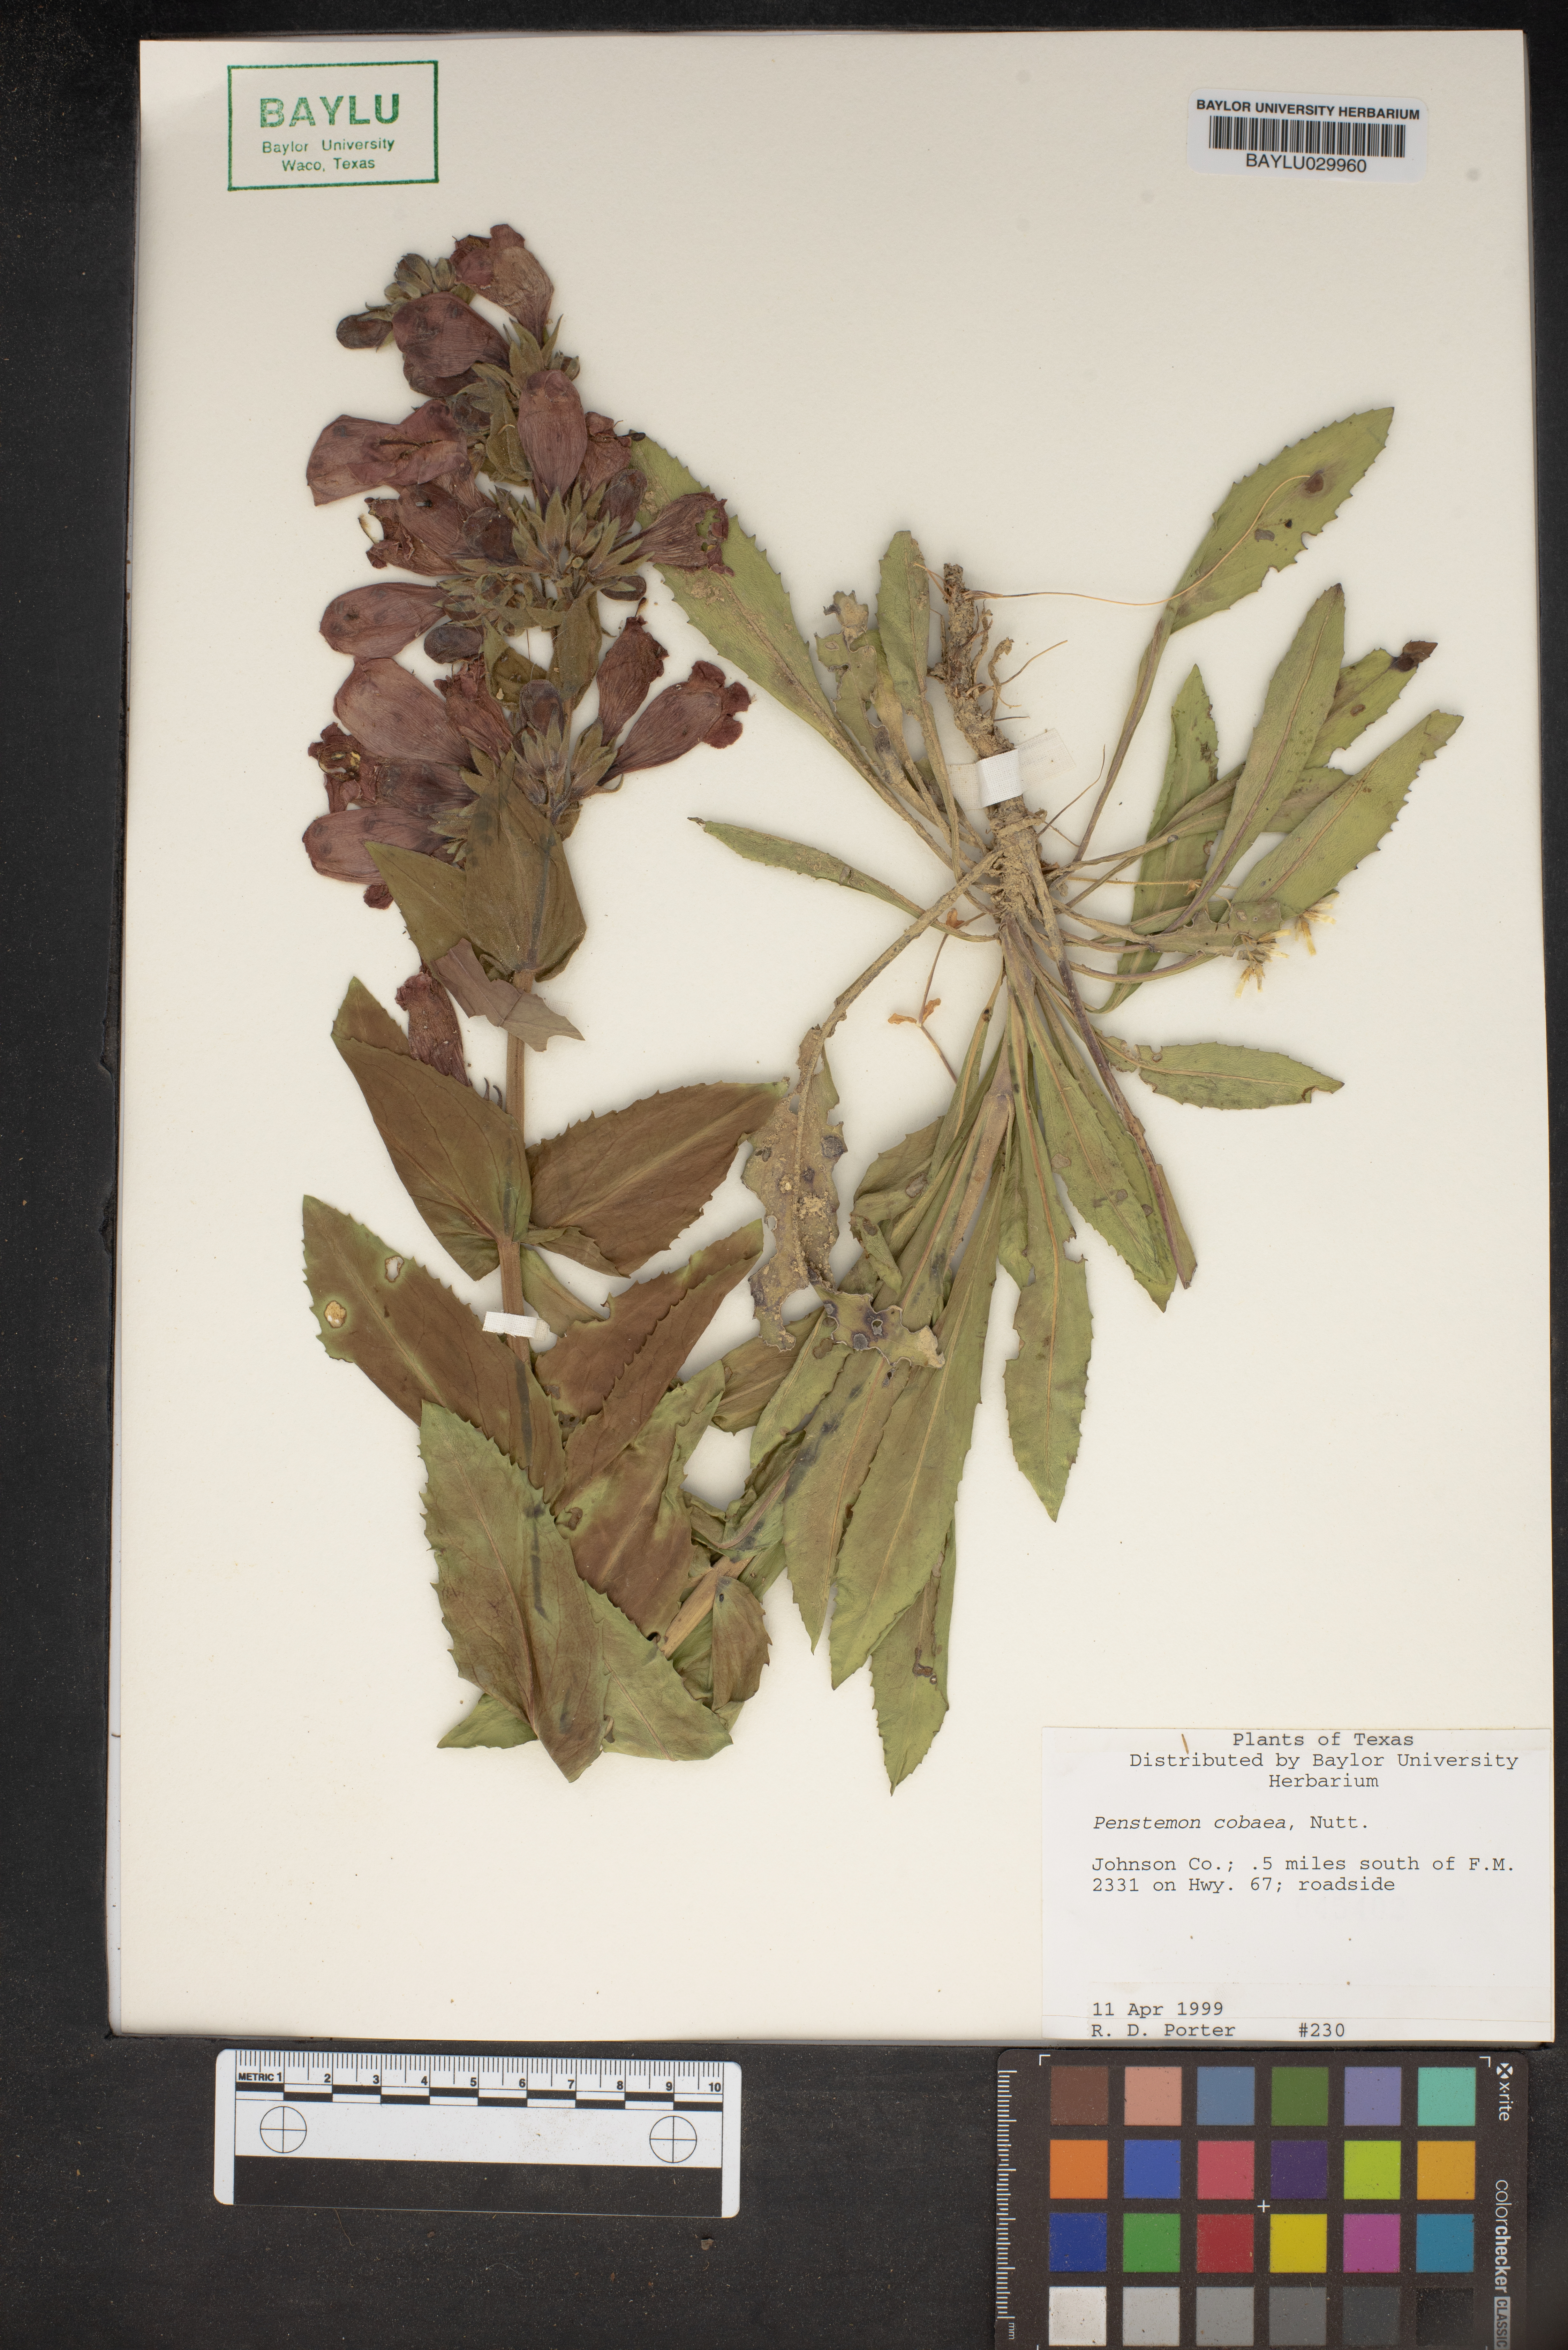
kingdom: Plantae
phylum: Tracheophyta
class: Magnoliopsida
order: Lamiales
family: Plantaginaceae
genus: Penstemon
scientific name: Penstemon cobaea
